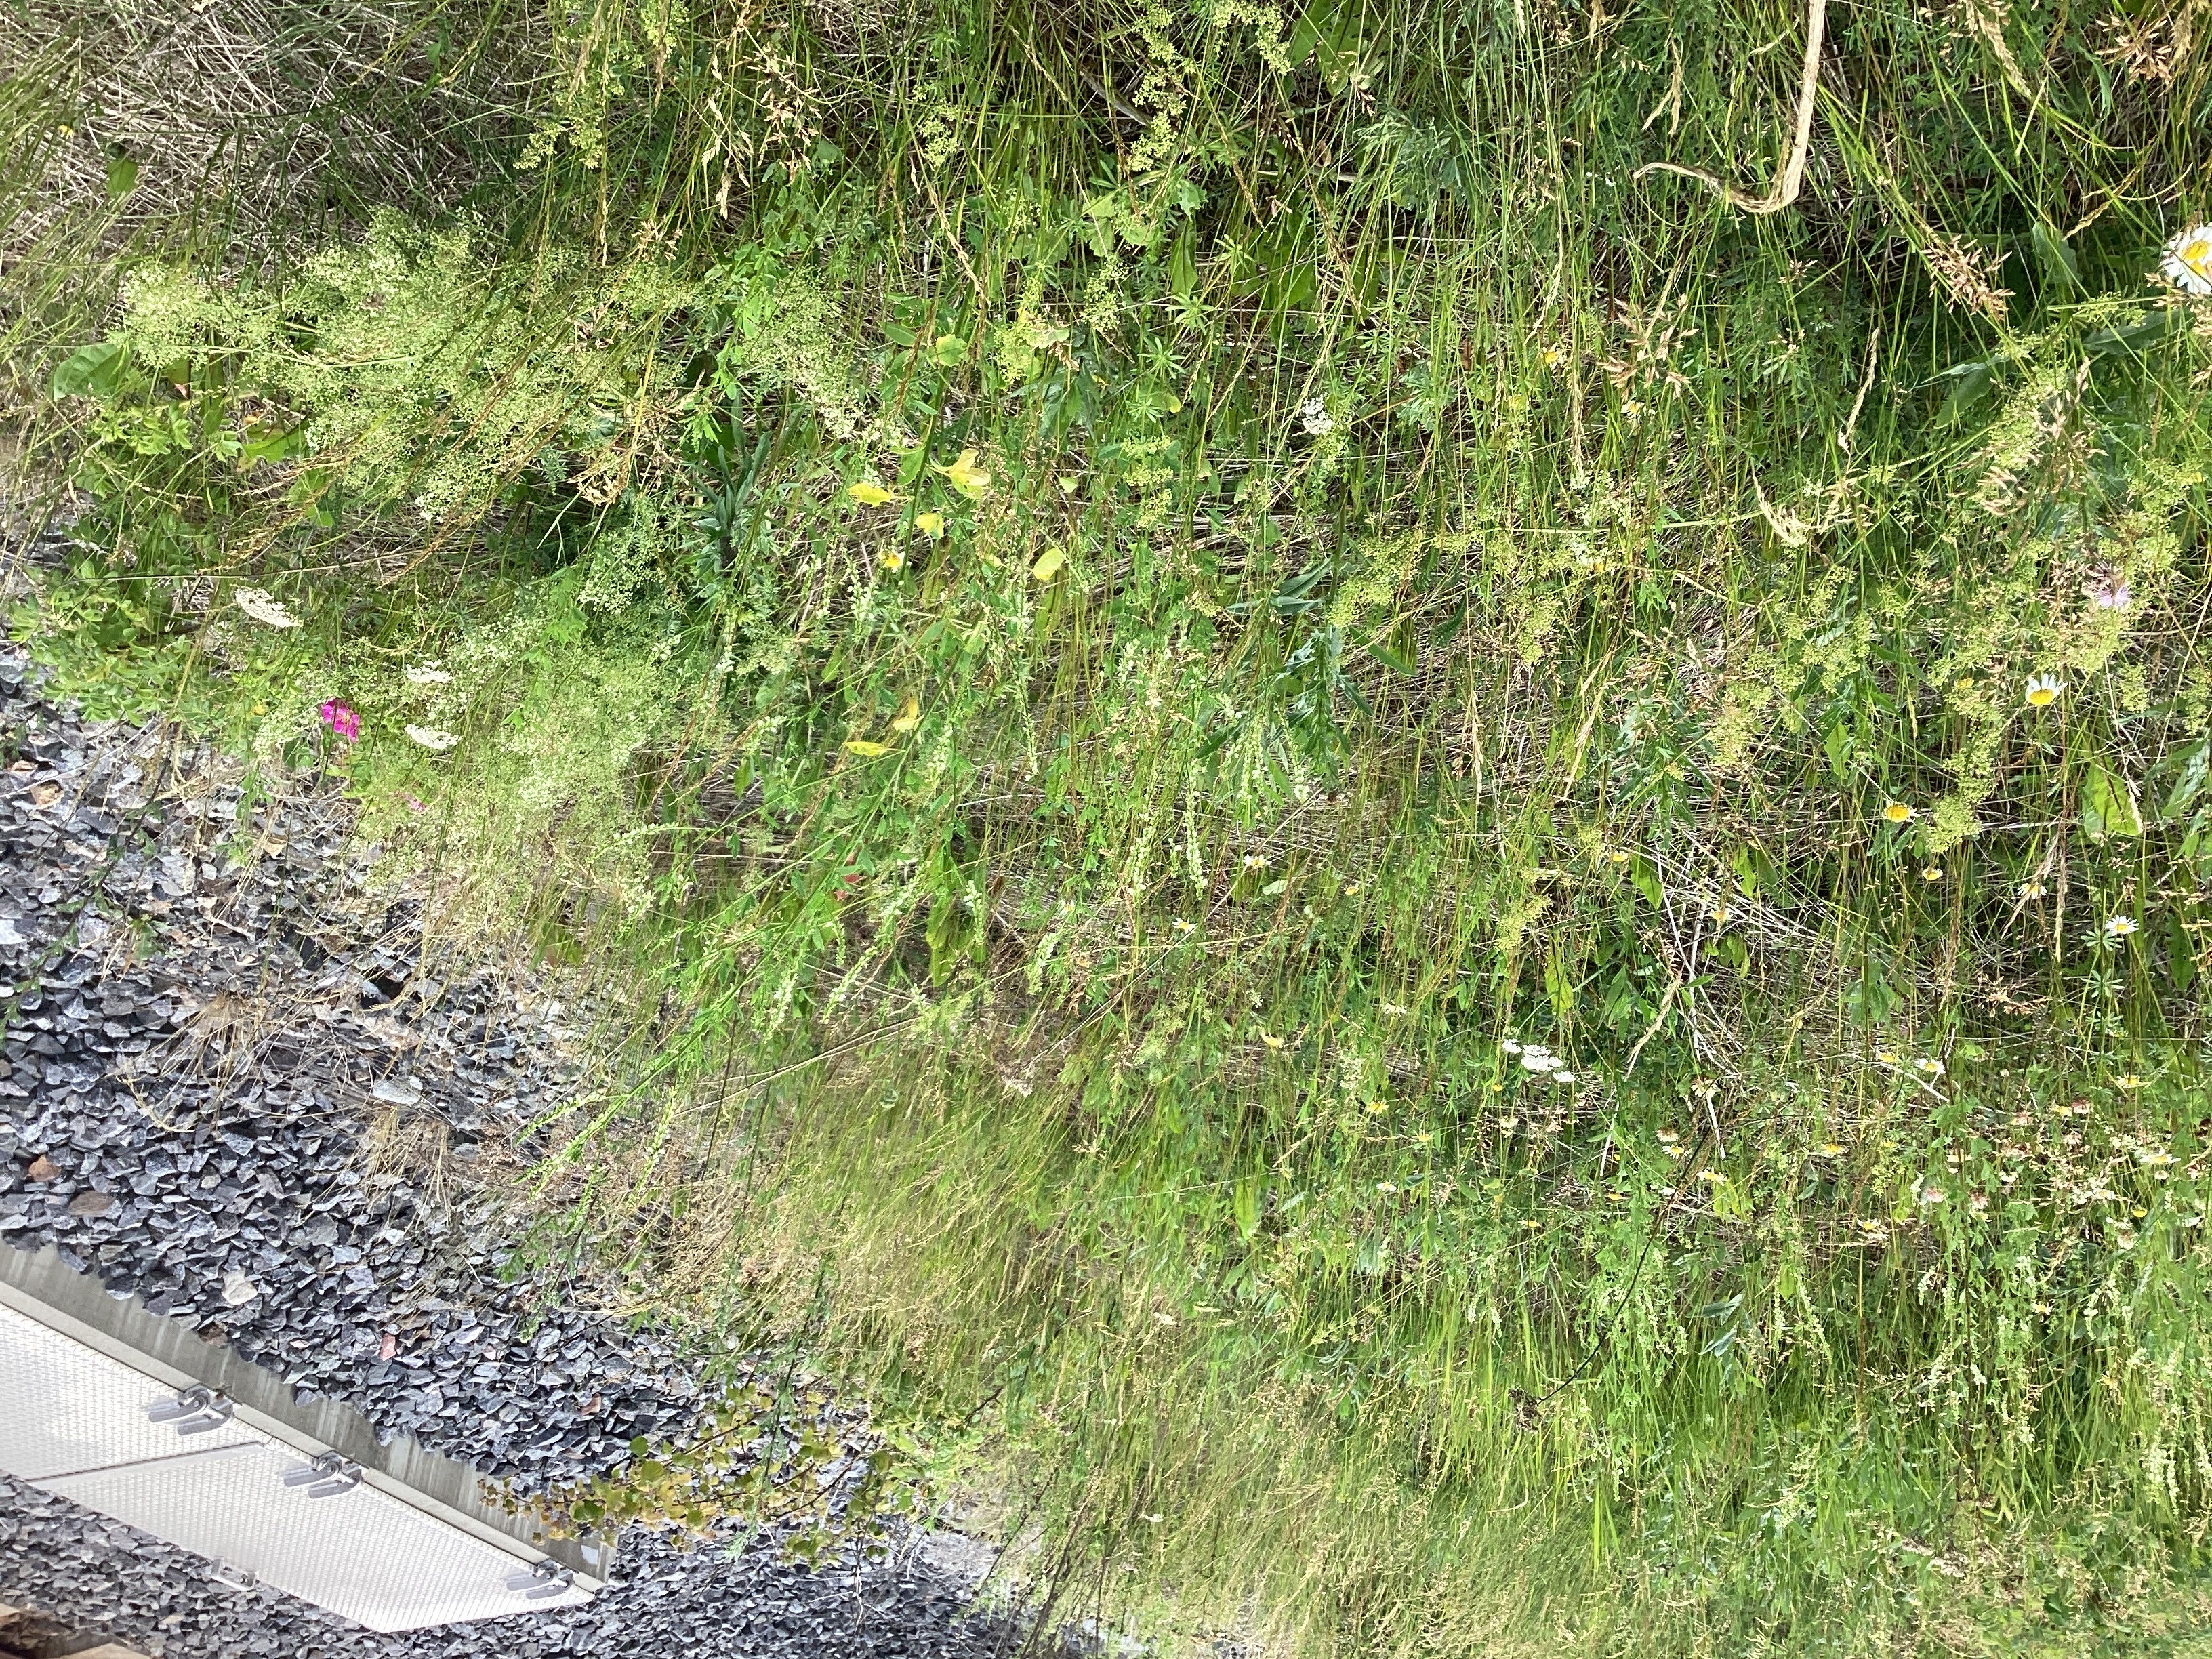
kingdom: Plantae
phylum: Tracheophyta
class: Magnoliopsida
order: Fabales
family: Fabaceae
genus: Melilotus
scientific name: Melilotus albus
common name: hvitsteinkløver
